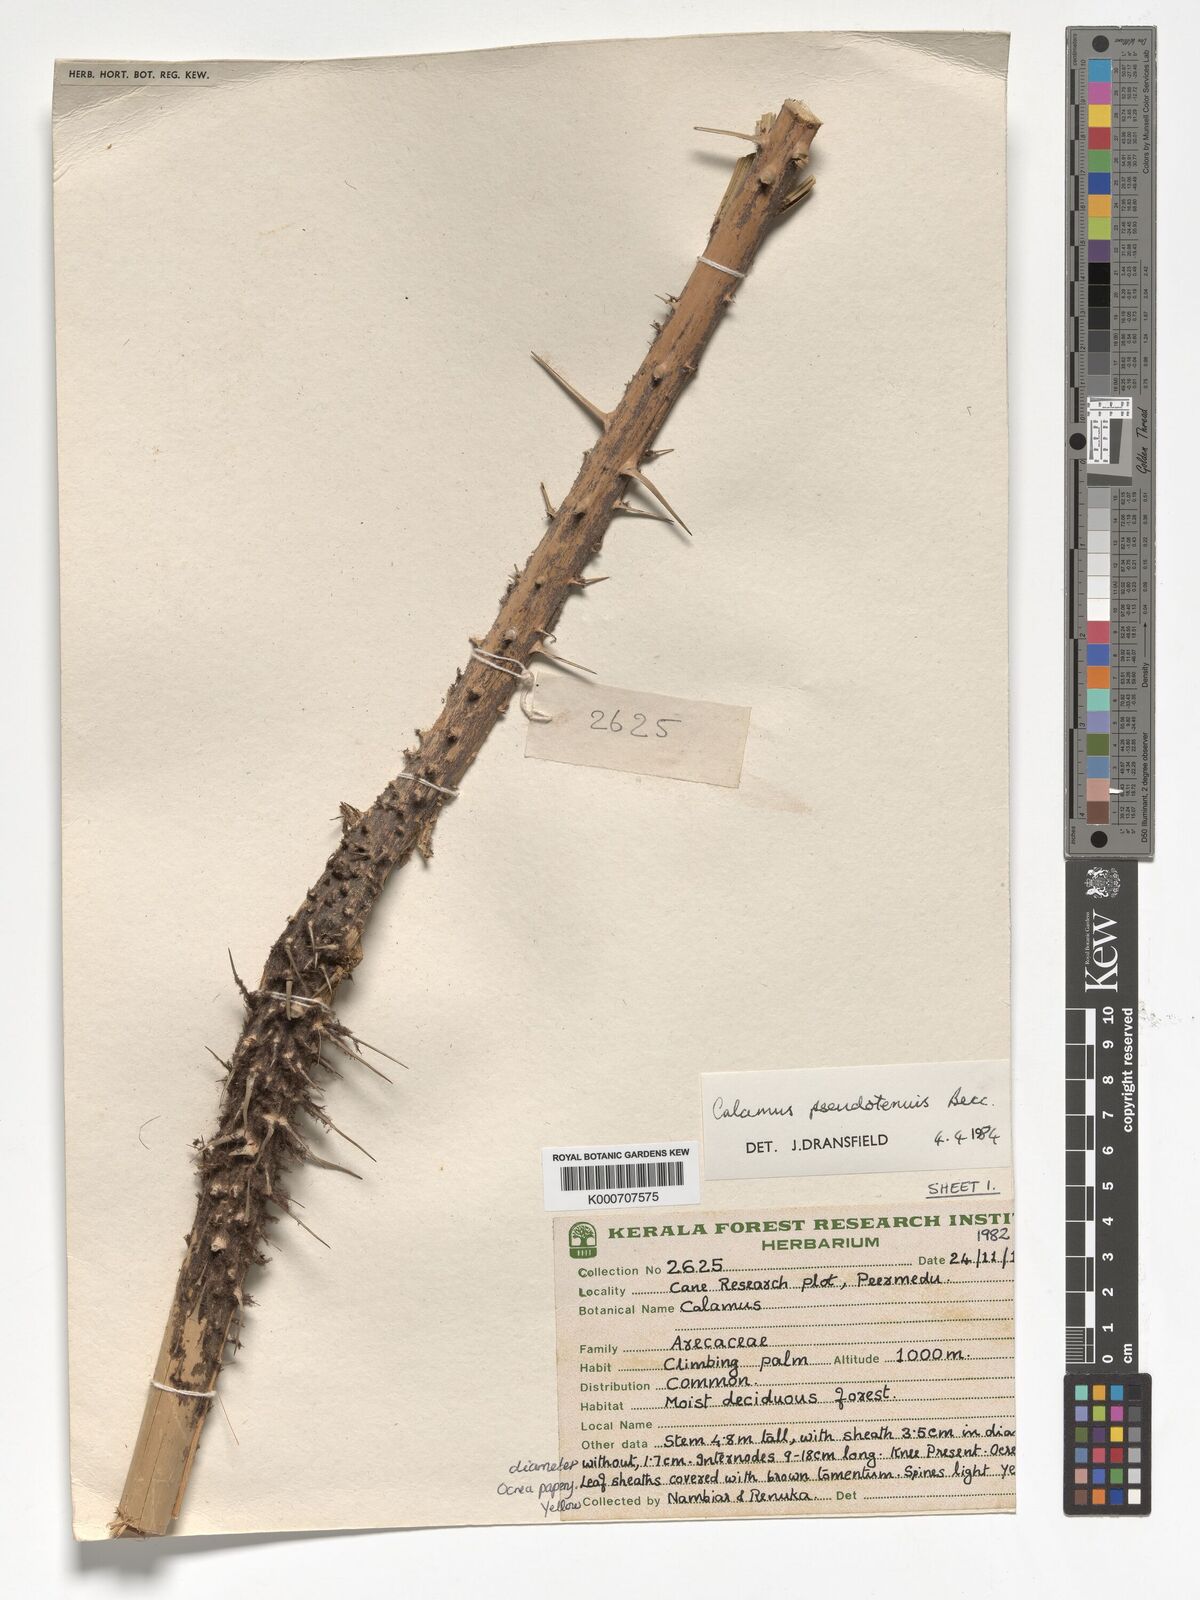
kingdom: Plantae
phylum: Tracheophyta
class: Liliopsida
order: Arecales
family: Arecaceae
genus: Calamus
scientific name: Calamus pseudotenuis
